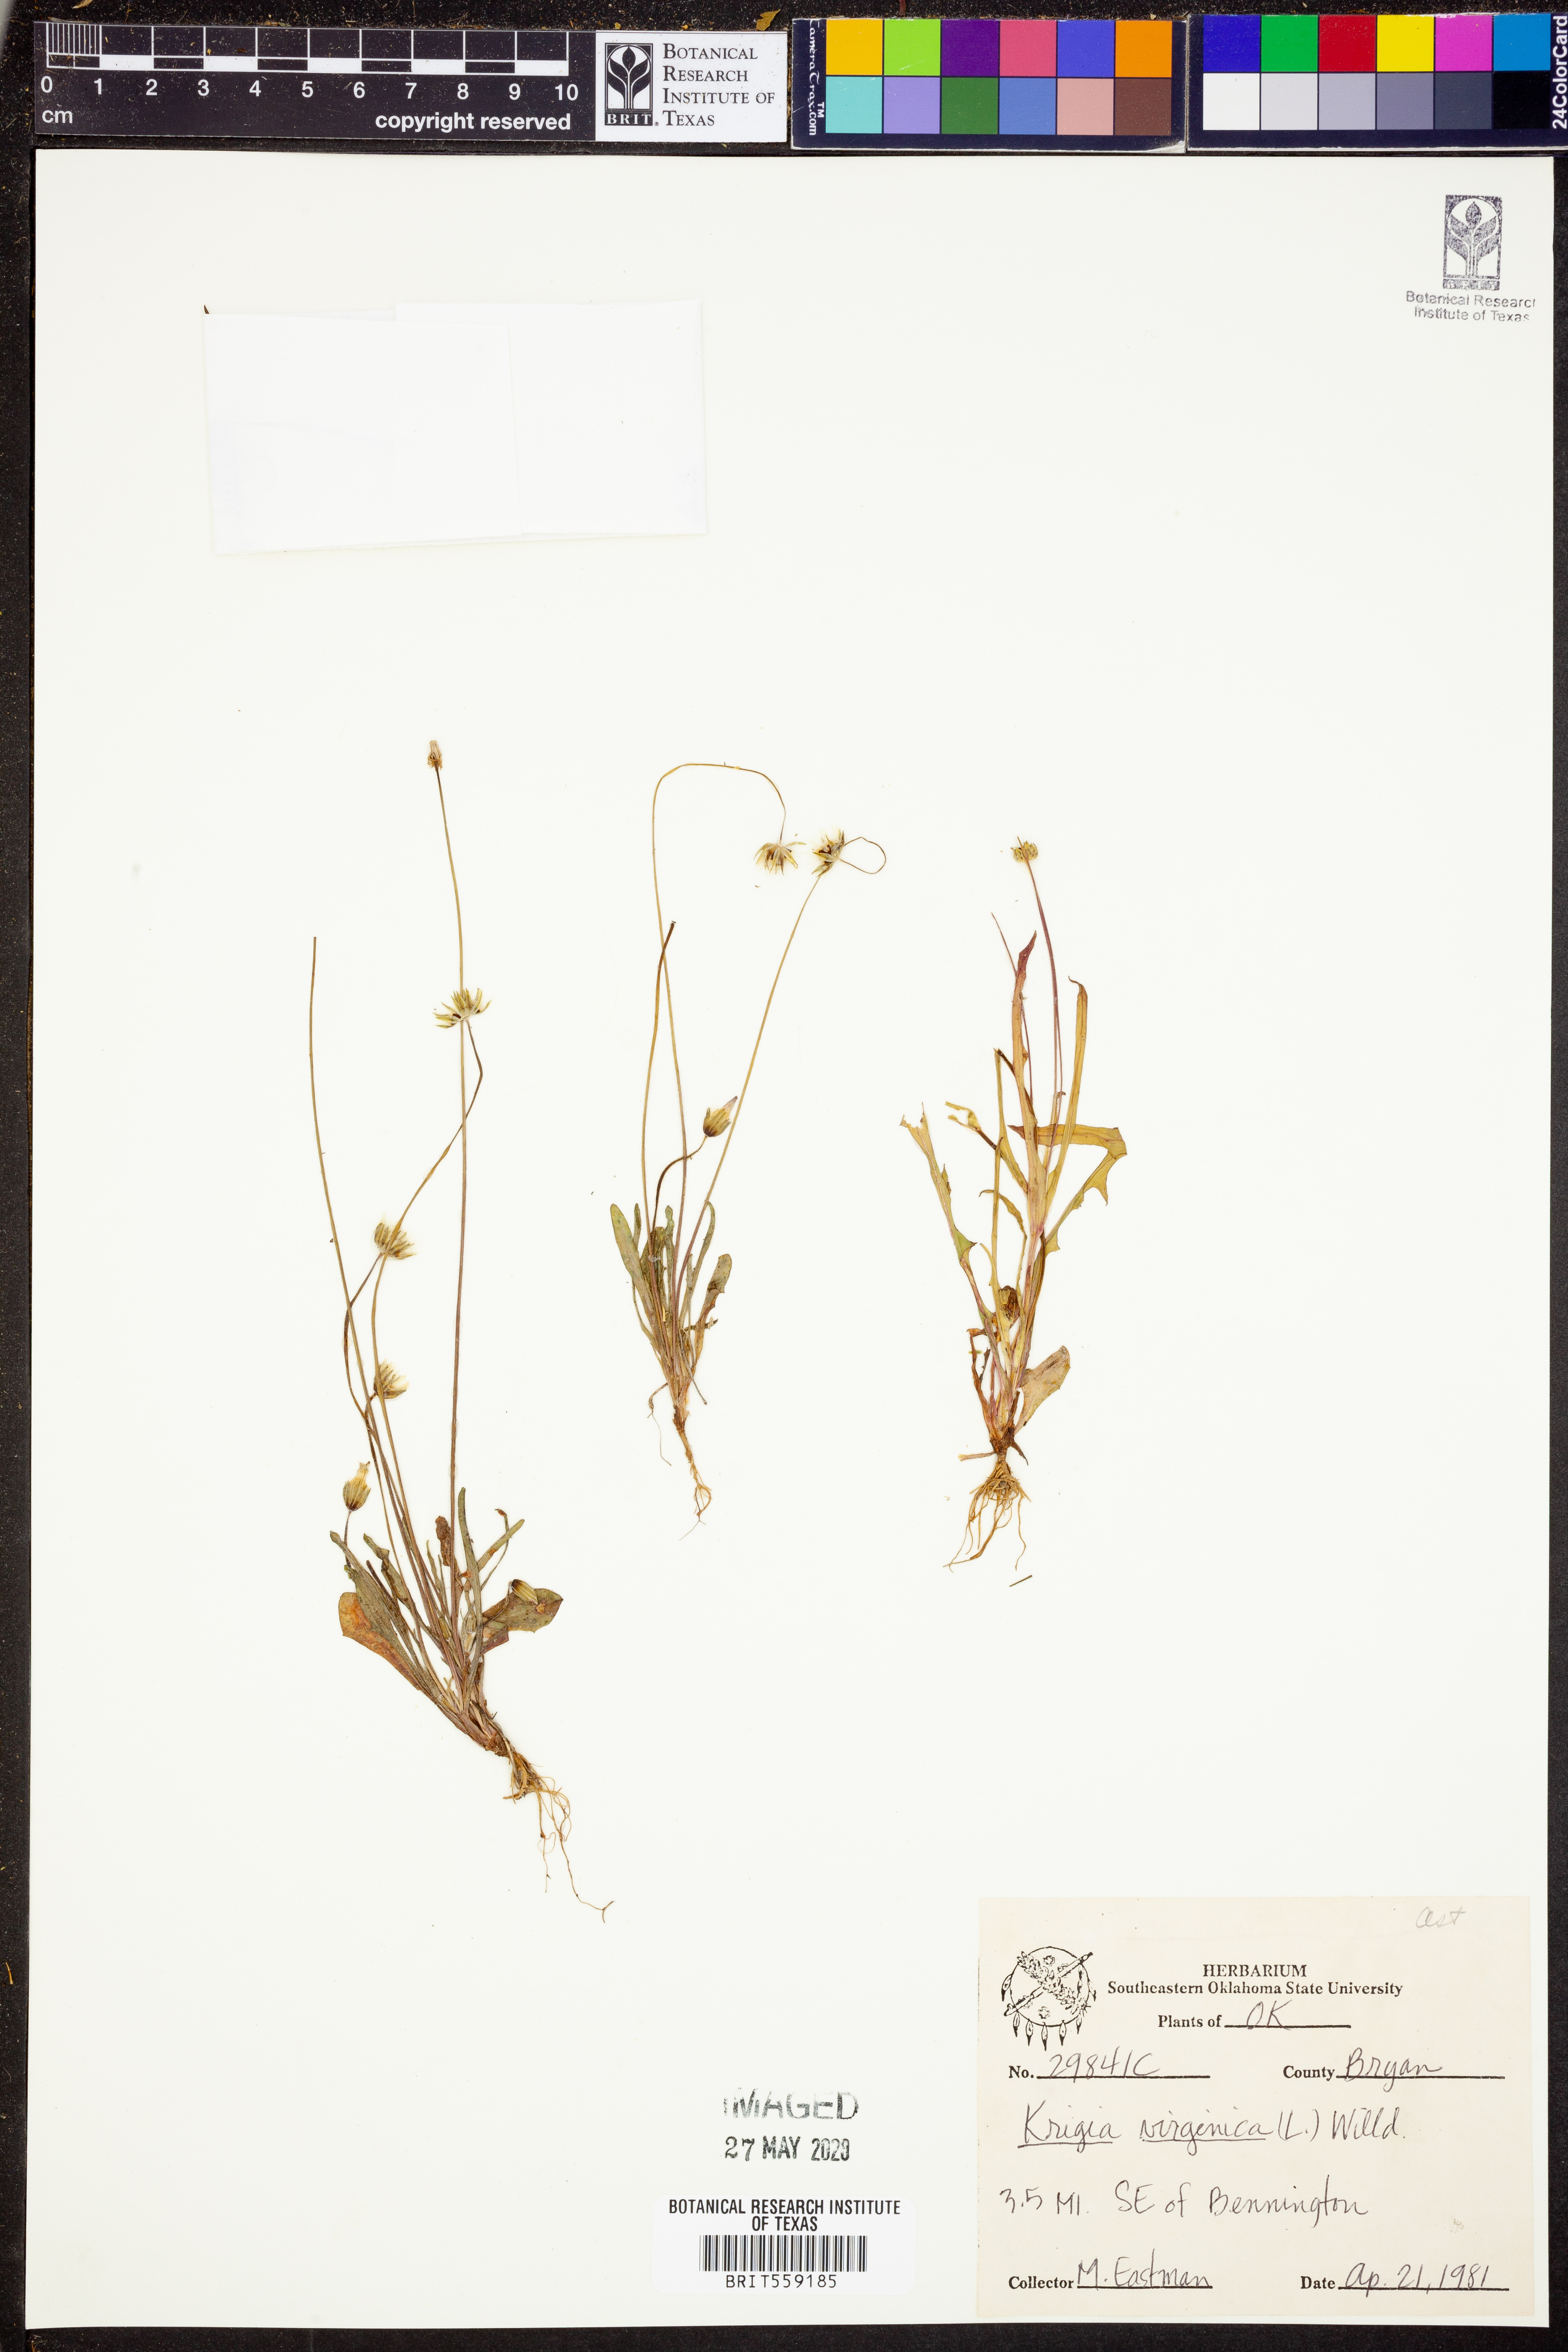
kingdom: Plantae
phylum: Tracheophyta
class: Magnoliopsida
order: Asterales
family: Asteraceae
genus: Krigia
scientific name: Krigia virginica
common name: Virginia dwarf-dandelion
